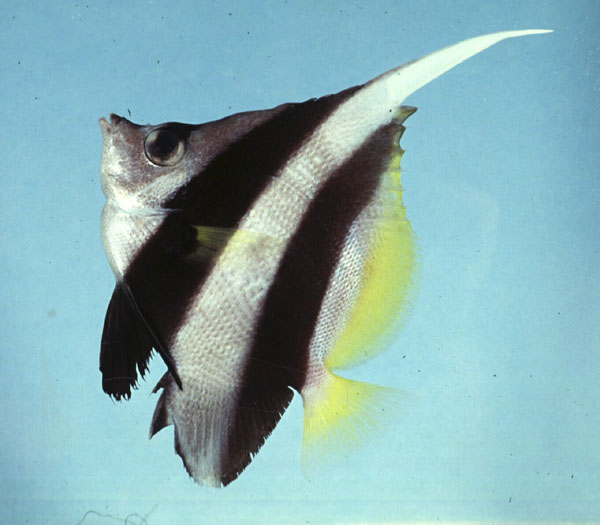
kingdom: Animalia
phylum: Chordata
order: Perciformes
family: Chaetodontidae
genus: Heniochus
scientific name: Heniochus acuminatus
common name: Pennant coralfish
